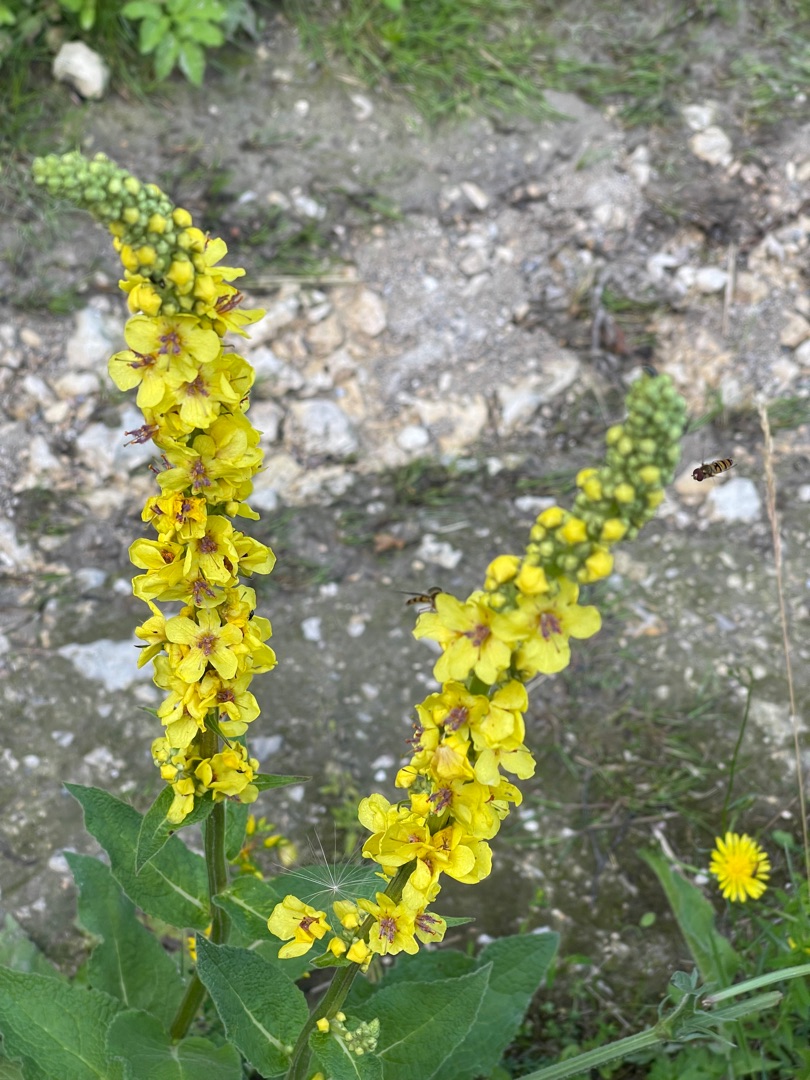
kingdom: Plantae
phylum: Tracheophyta
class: Magnoliopsida
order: Lamiales
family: Scrophulariaceae
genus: Verbascum
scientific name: Verbascum nigrum
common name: Mørk kongelys
